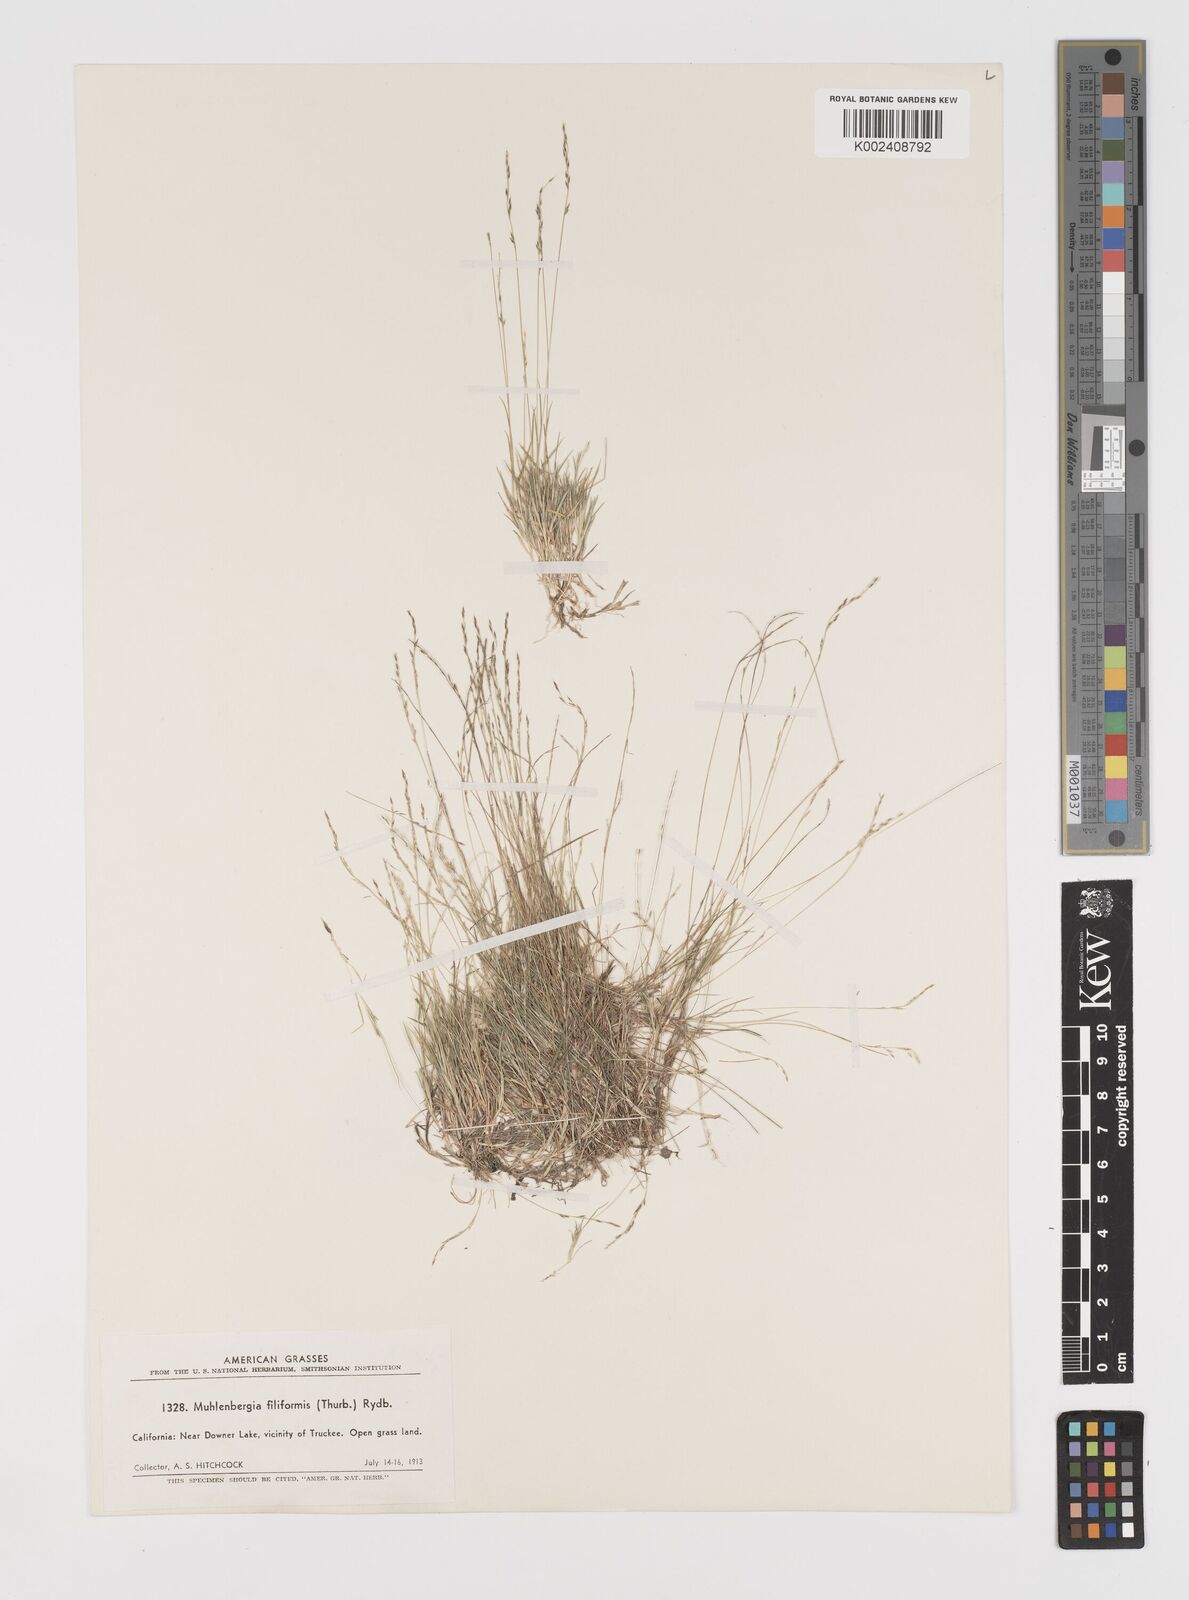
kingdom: Plantae
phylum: Tracheophyta
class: Liliopsida
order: Poales
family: Poaceae
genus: Leptochloa
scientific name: Leptochloa mucronata
